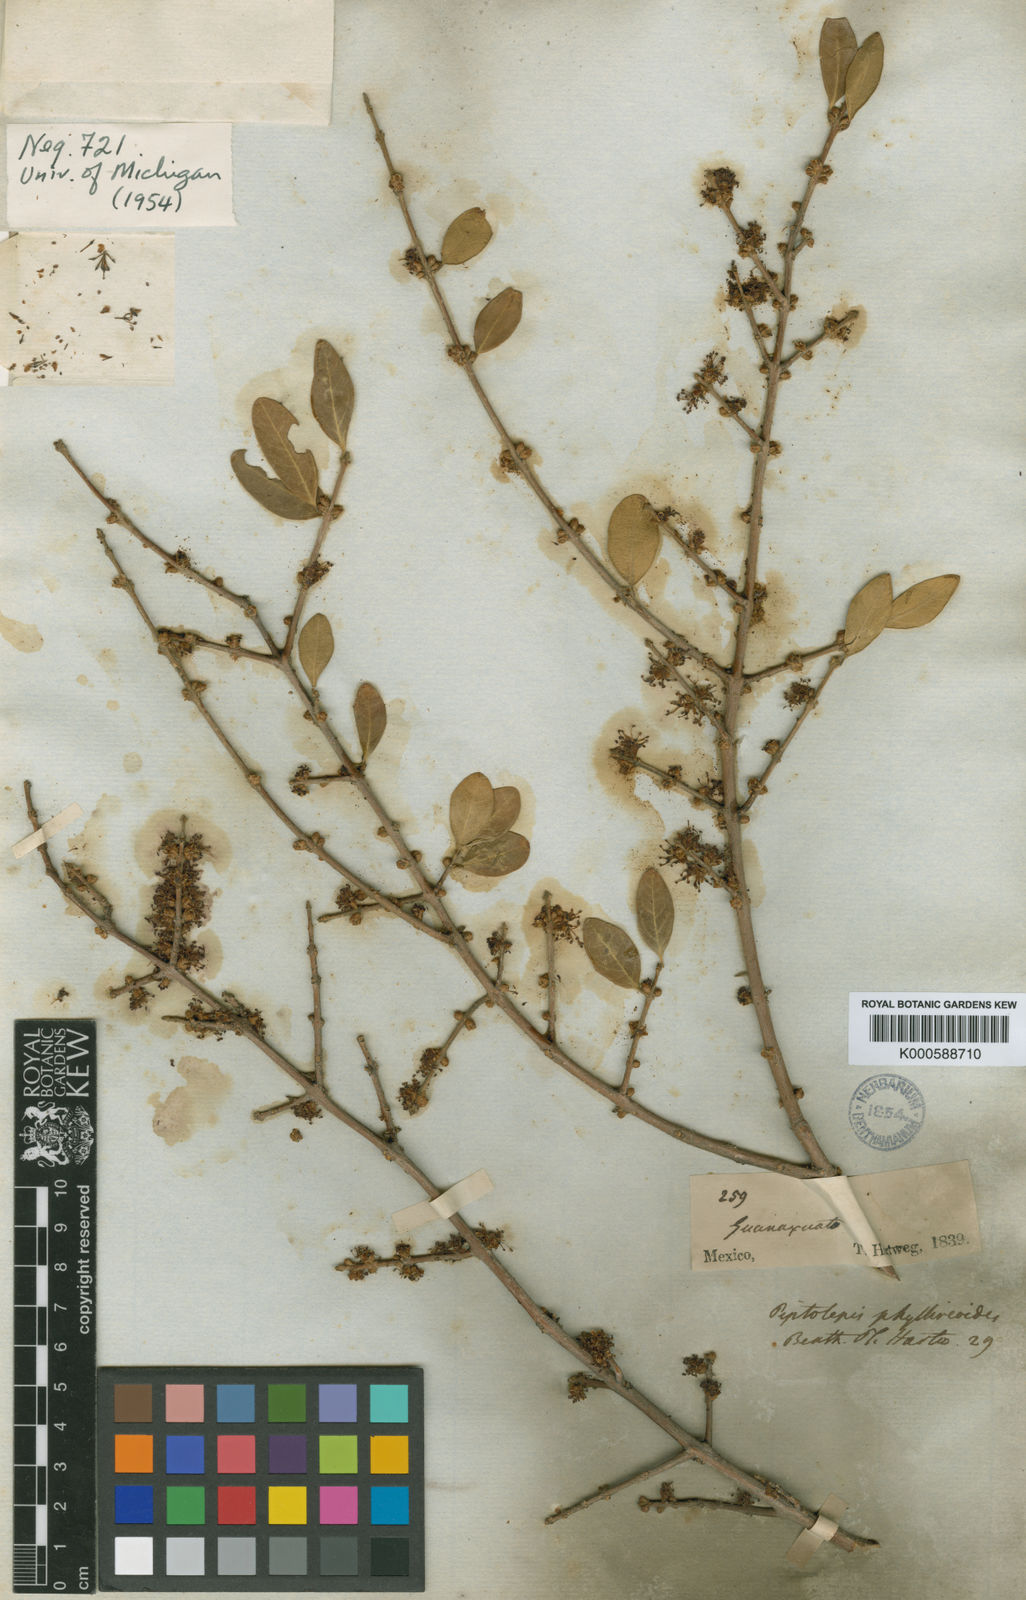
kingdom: Plantae
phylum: Tracheophyta
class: Magnoliopsida
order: Lamiales
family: Oleaceae
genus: Forestiera
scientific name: Forestiera phillyreoides
